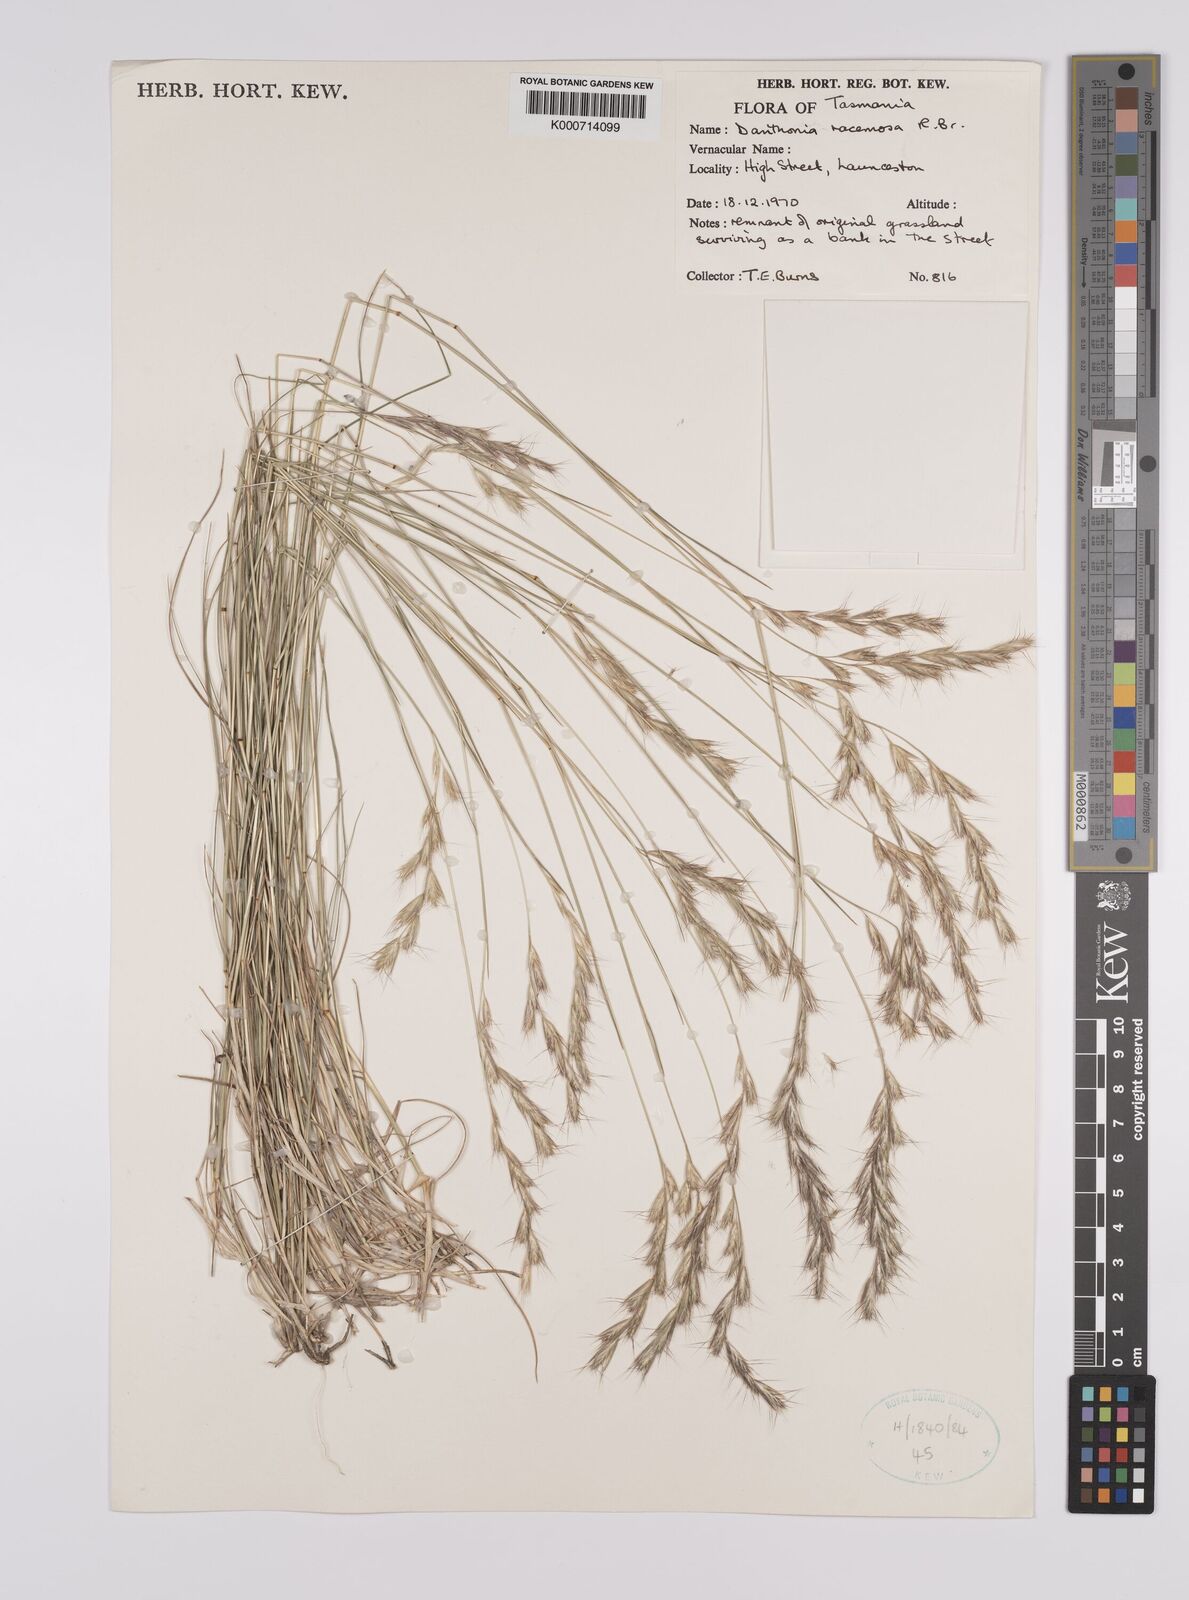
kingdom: Plantae
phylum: Tracheophyta
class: Liliopsida
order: Poales
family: Poaceae
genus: Rytidosperma
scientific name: Rytidosperma racemosum
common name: Wallaby-grass
